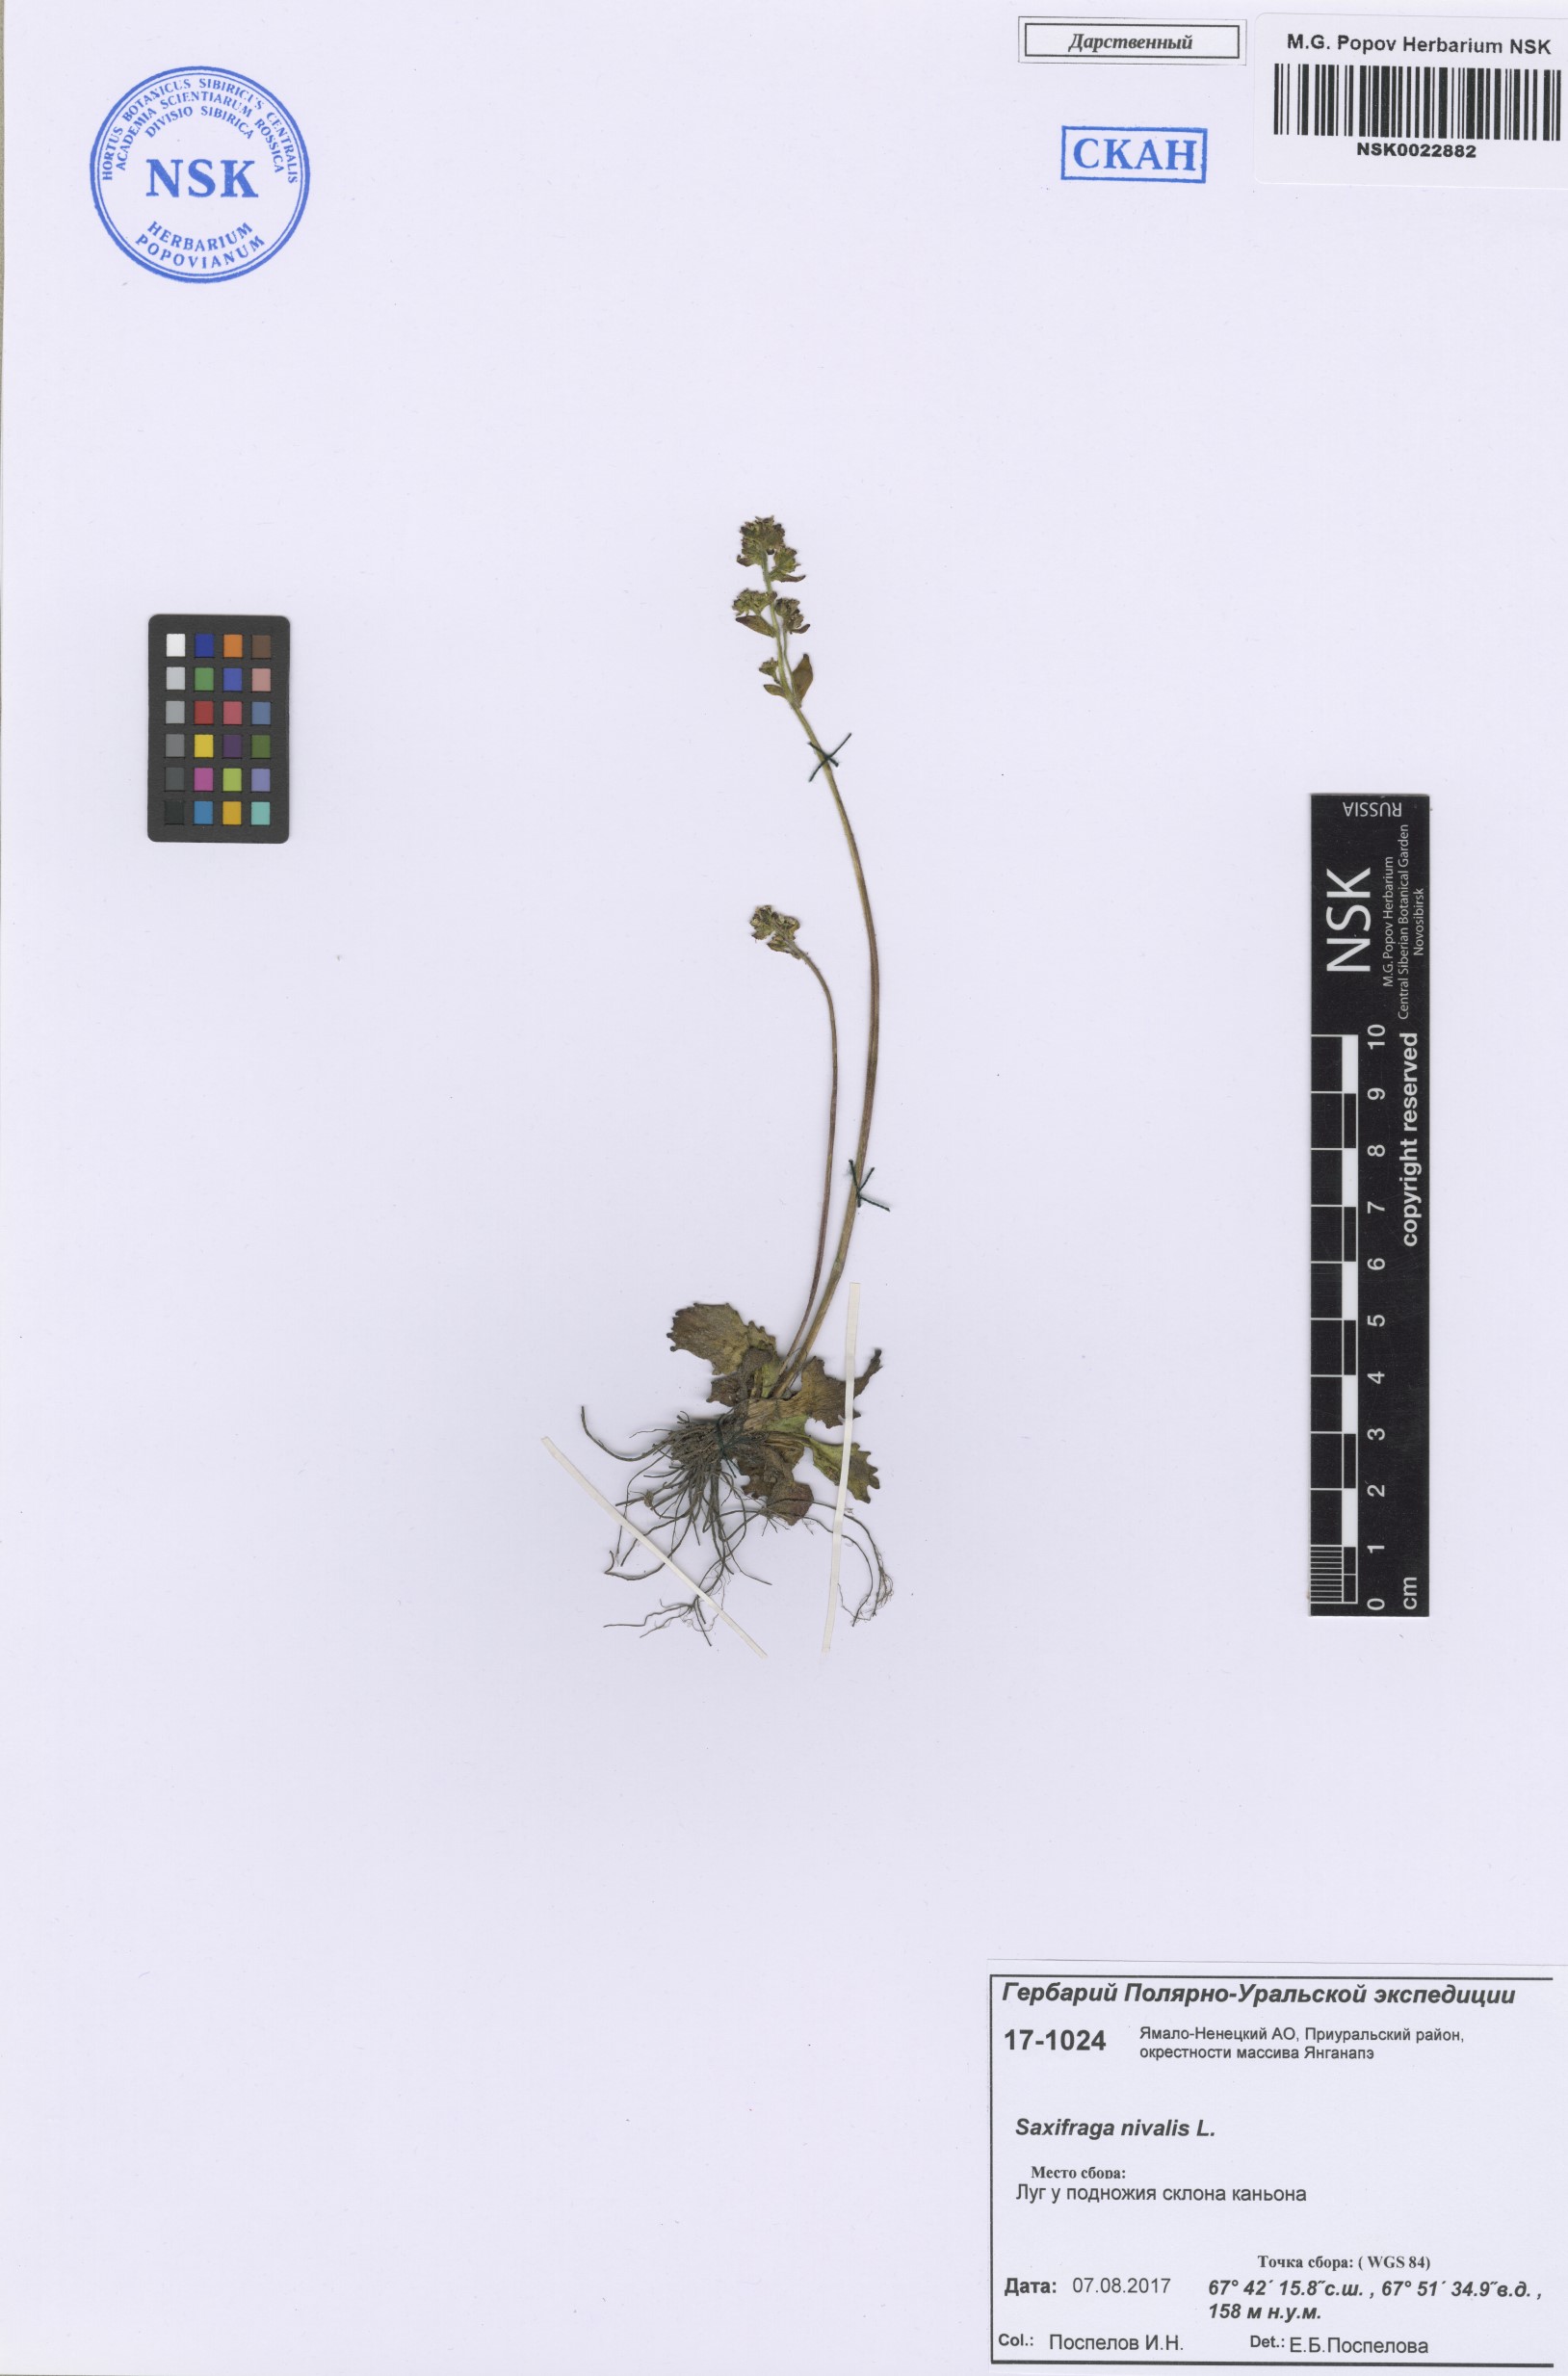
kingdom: Plantae
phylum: Tracheophyta
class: Magnoliopsida
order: Saxifragales
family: Saxifragaceae
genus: Micranthes
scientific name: Micranthes nivalis
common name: Alpine saxifrage
